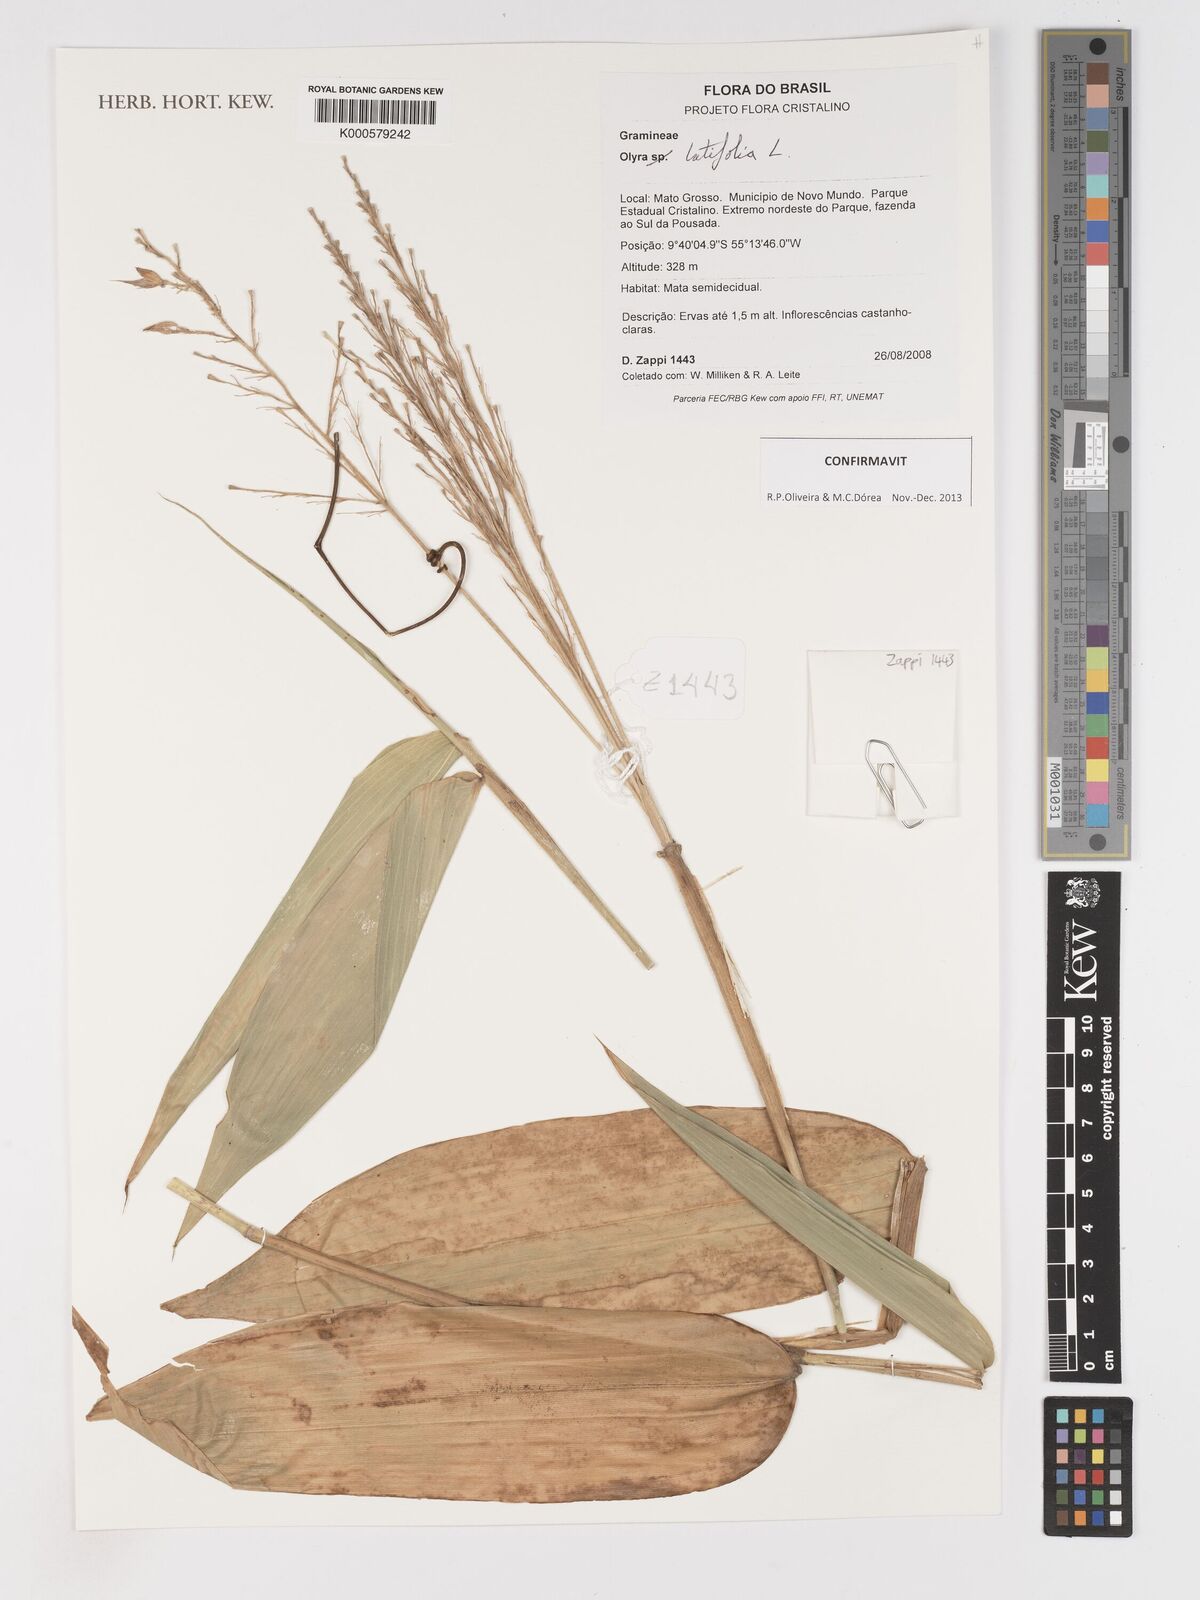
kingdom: Plantae
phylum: Tracheophyta
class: Liliopsida
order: Poales
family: Poaceae
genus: Olyra
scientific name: Olyra latifolia
